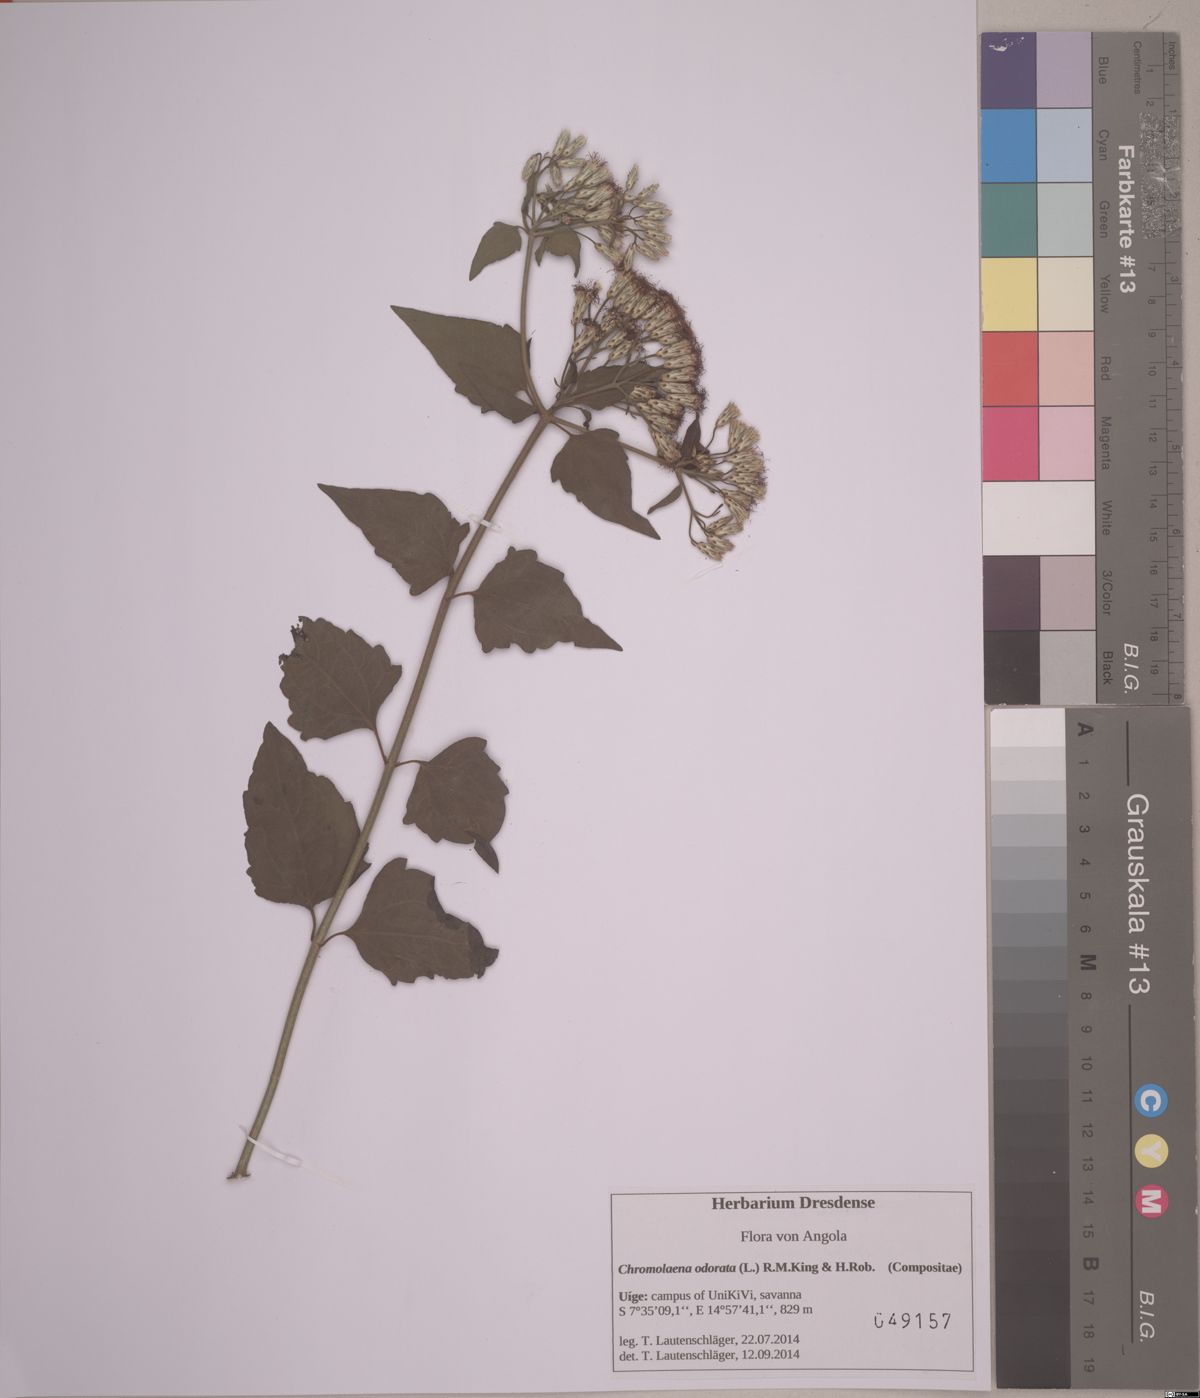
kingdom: Plantae
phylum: Tracheophyta
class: Magnoliopsida
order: Asterales
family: Asteraceae
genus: Chromolaena
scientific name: Chromolaena odorata
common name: Siamweed
